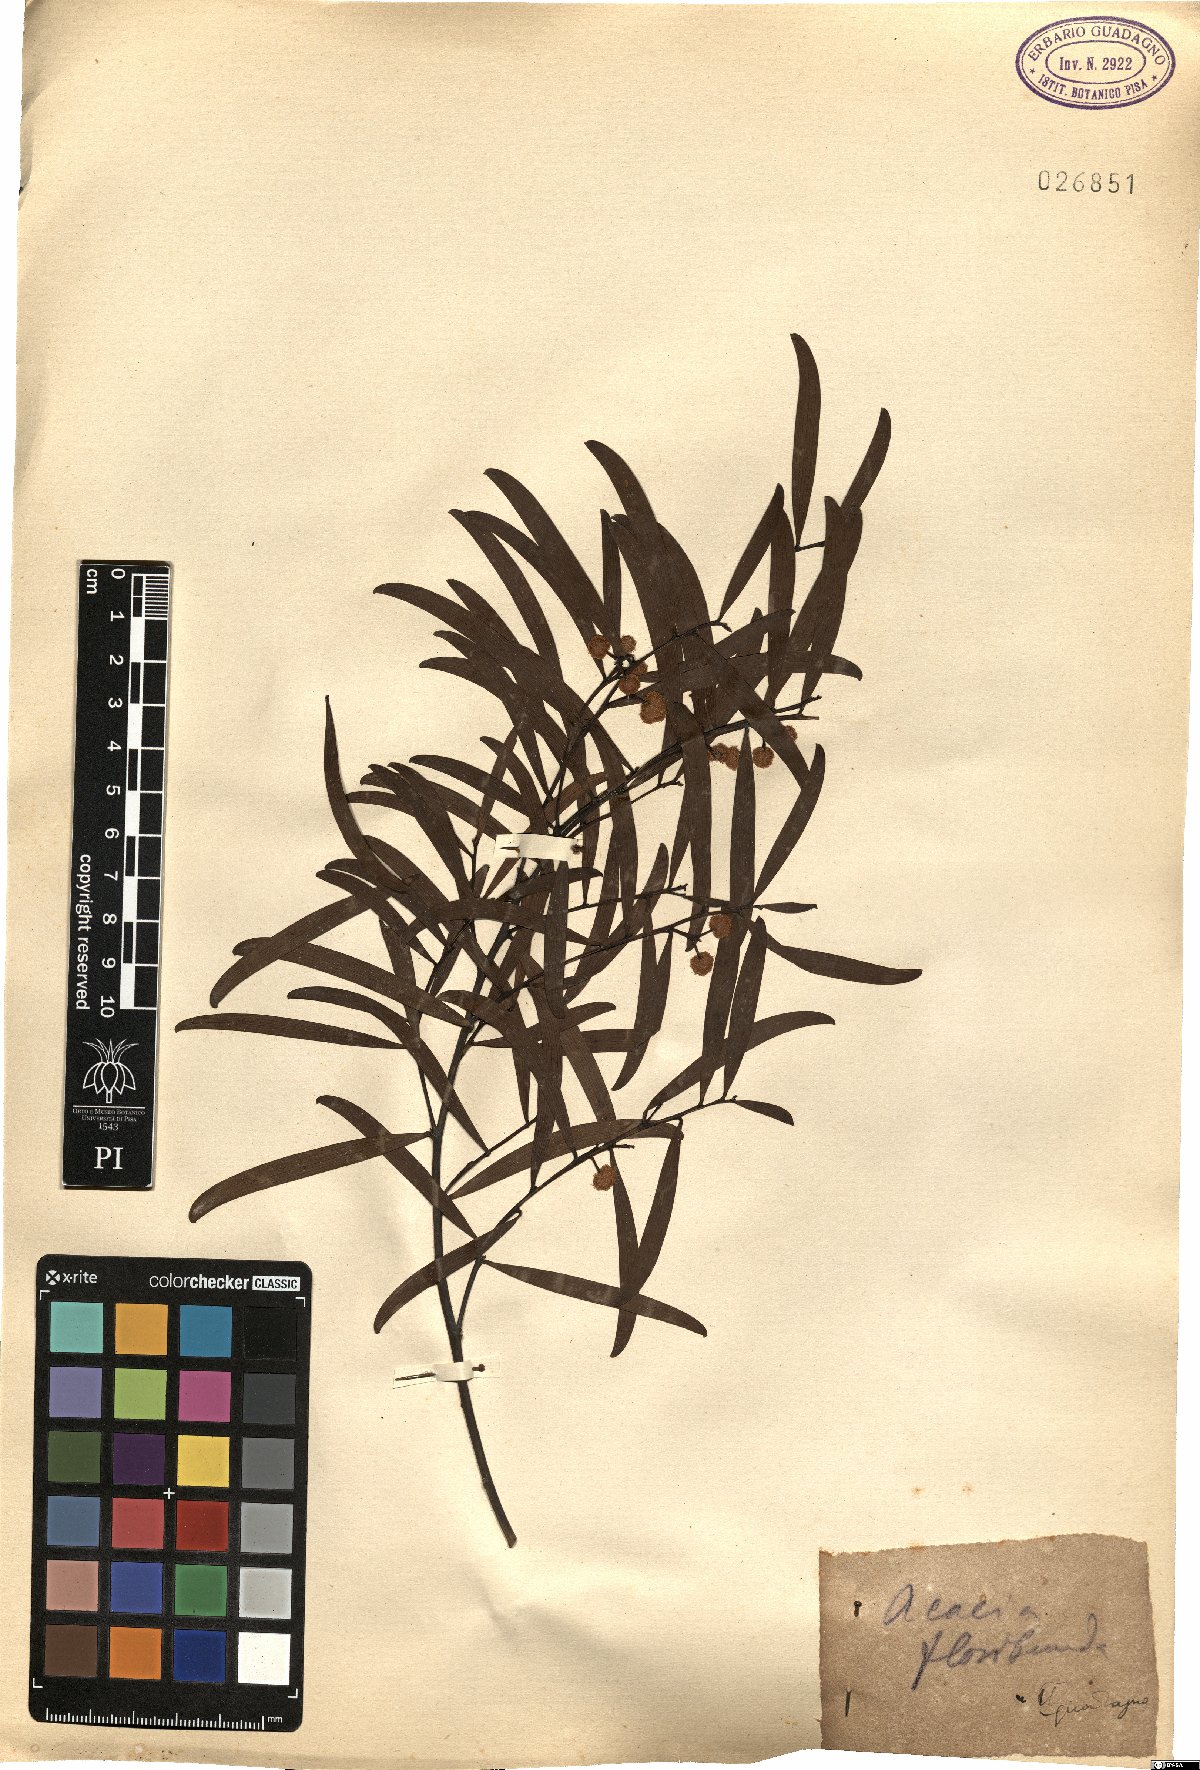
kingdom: Plantae
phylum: Tracheophyta
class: Magnoliopsida
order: Fabales
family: Fabaceae
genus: Acacia
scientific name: Acacia floribunda
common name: Gossamer wattle
